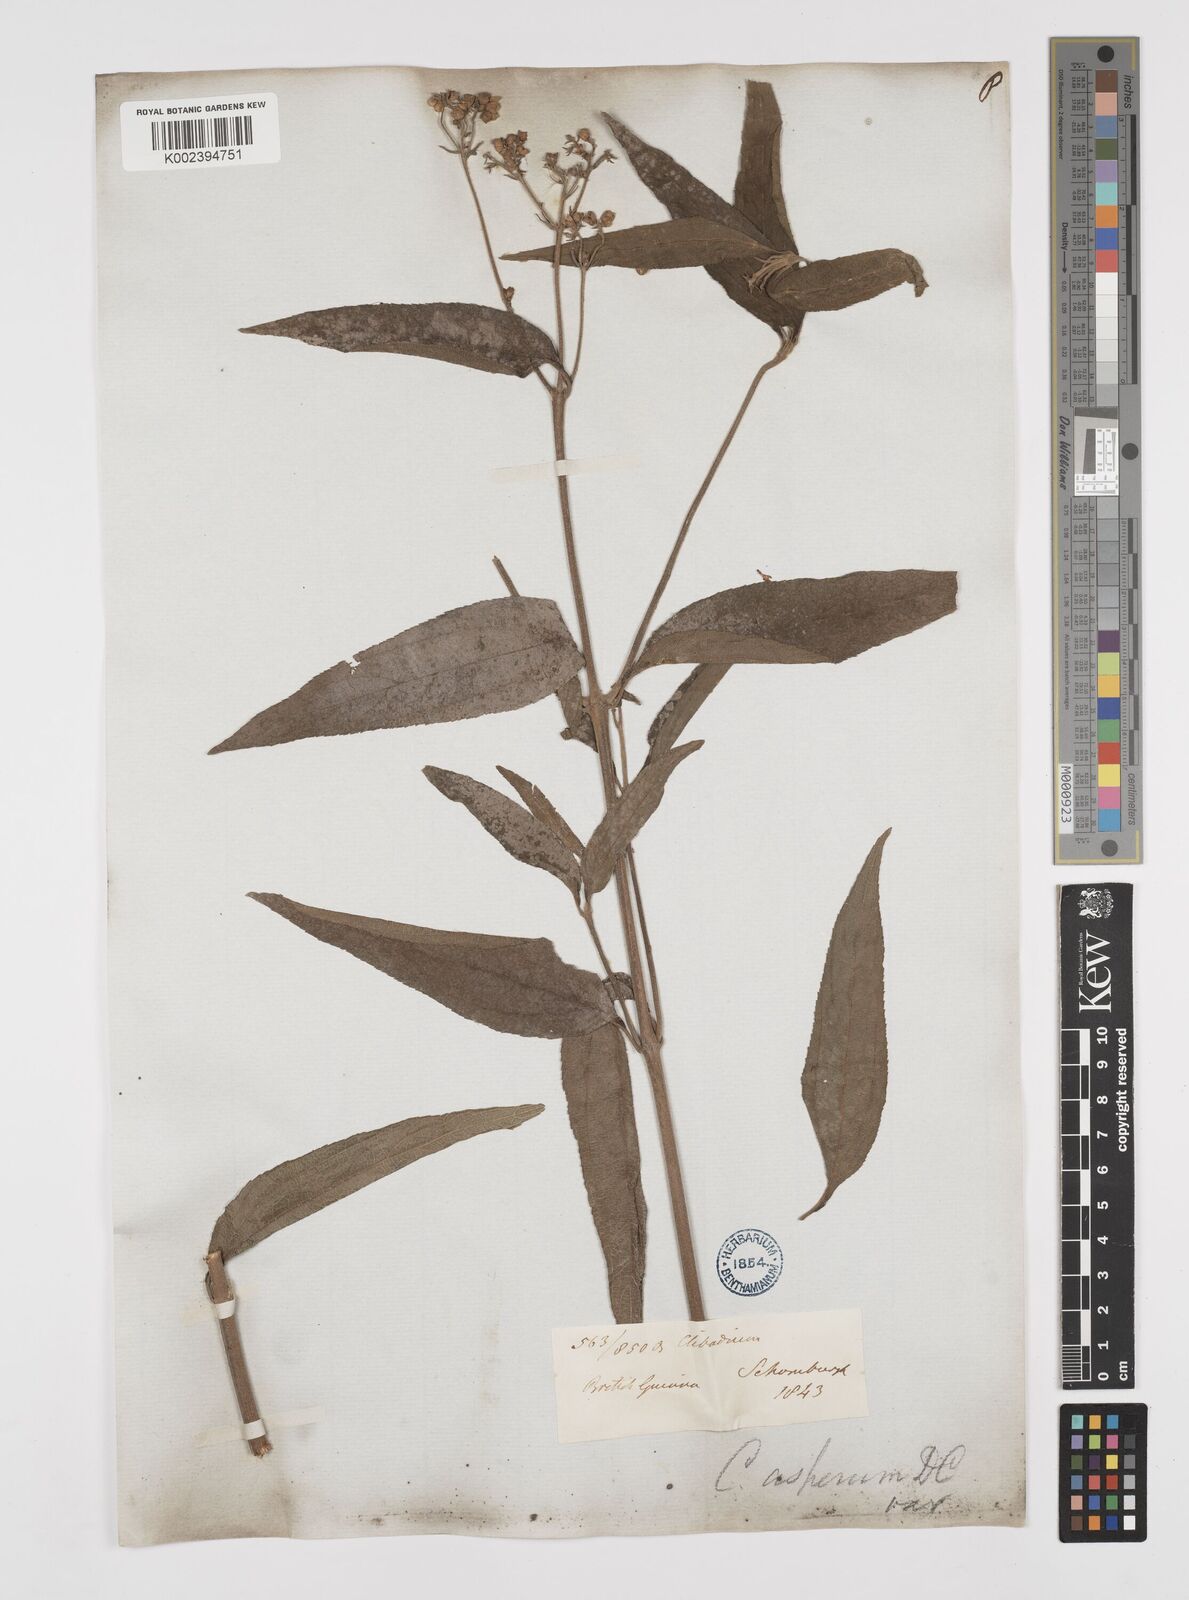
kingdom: Plantae
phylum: Tracheophyta
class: Magnoliopsida
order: Asterales
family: Asteraceae
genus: Clibadium
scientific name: Clibadium surinamense
